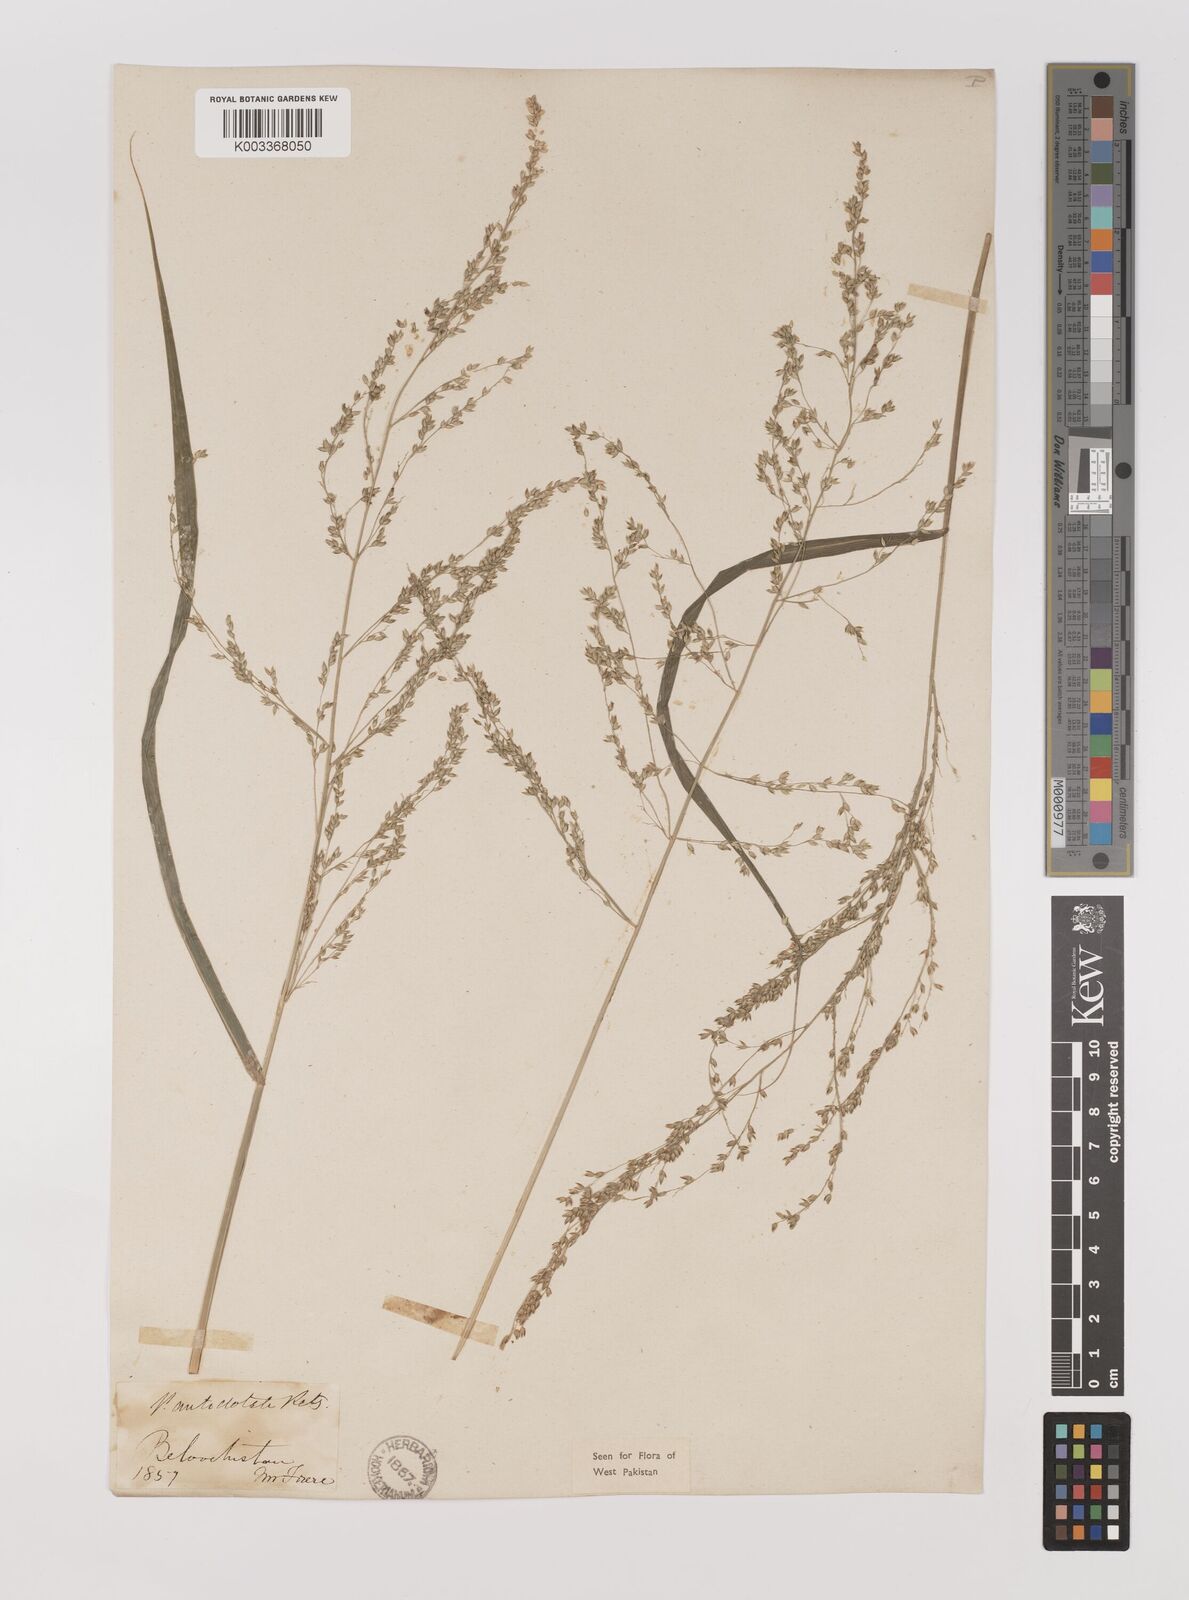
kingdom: Plantae
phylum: Tracheophyta
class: Liliopsida
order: Poales
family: Poaceae
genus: Panicum
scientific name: Panicum antidotale
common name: Blue panicum
